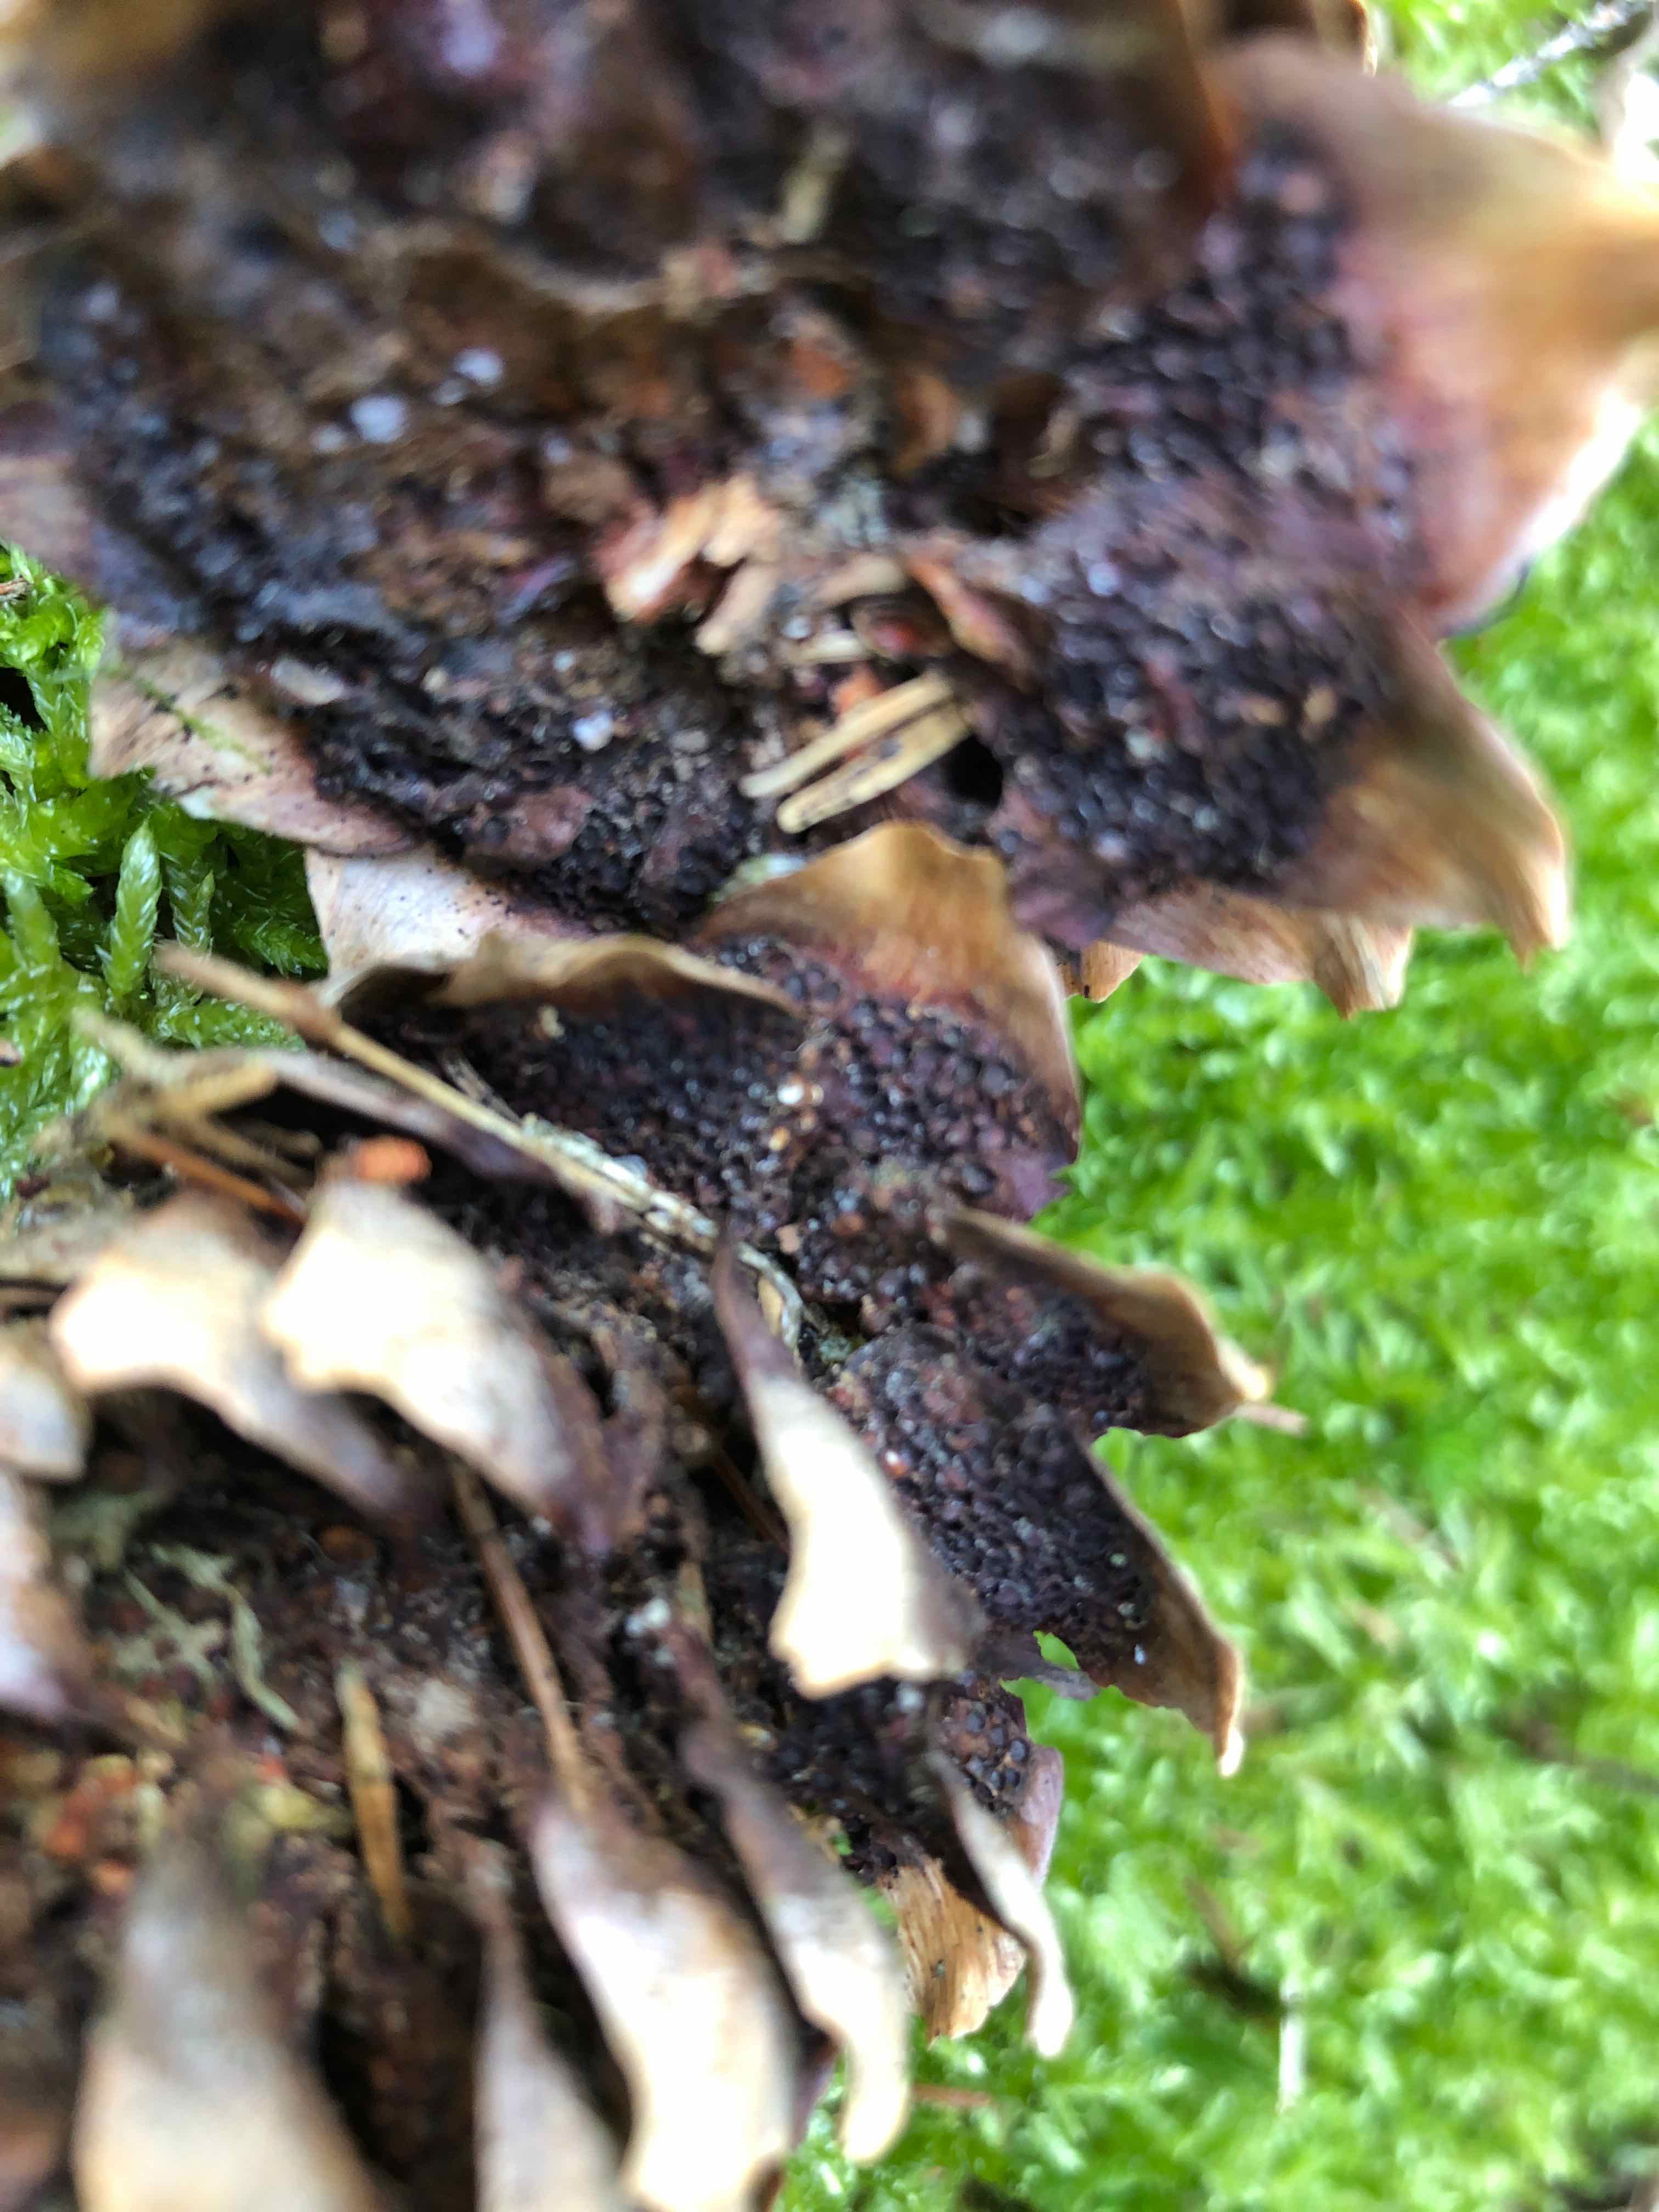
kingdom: Fungi
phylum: Basidiomycota
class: Pucciniomycetes
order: Pucciniales
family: Pucciniastraceae
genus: Thekopsora
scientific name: Thekopsora areolata
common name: grankogle-nålerust
